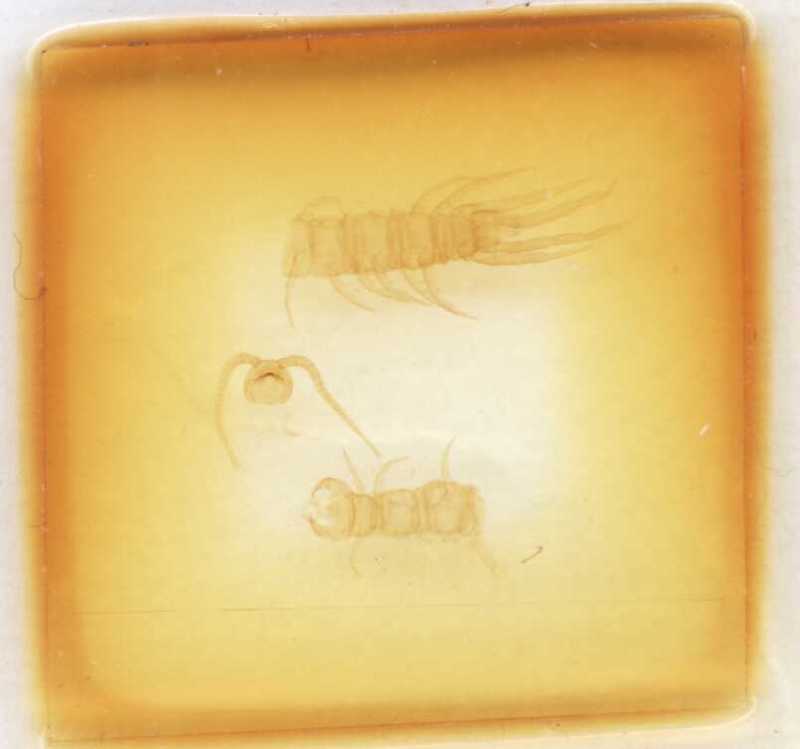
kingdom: Animalia
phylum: Arthropoda
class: Chilopoda
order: Lithobiomorpha
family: Lithobiidae
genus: Lithobius
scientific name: Lithobius salicis
